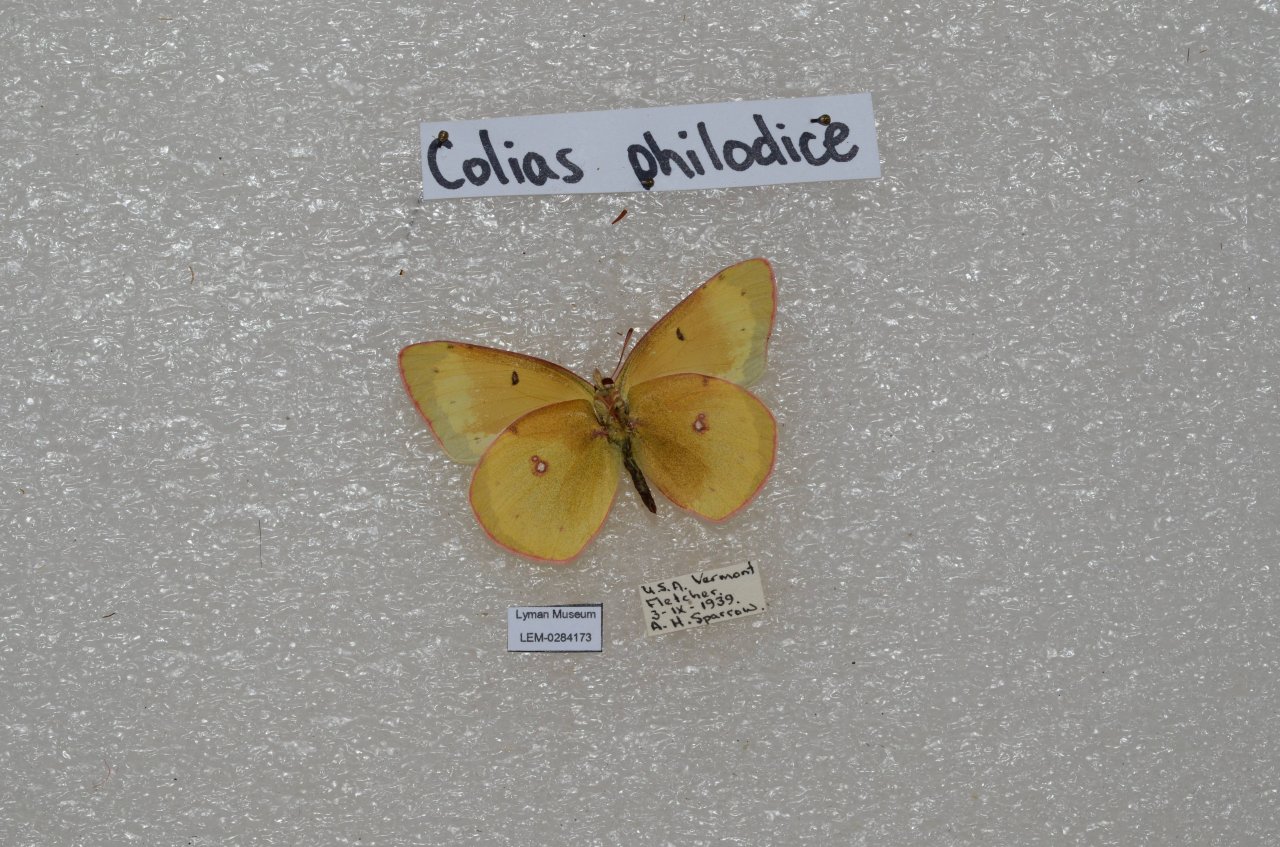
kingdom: Animalia
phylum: Arthropoda
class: Insecta
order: Lepidoptera
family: Pieridae
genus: Colias
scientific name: Colias philodice
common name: Clouded Sulphur
